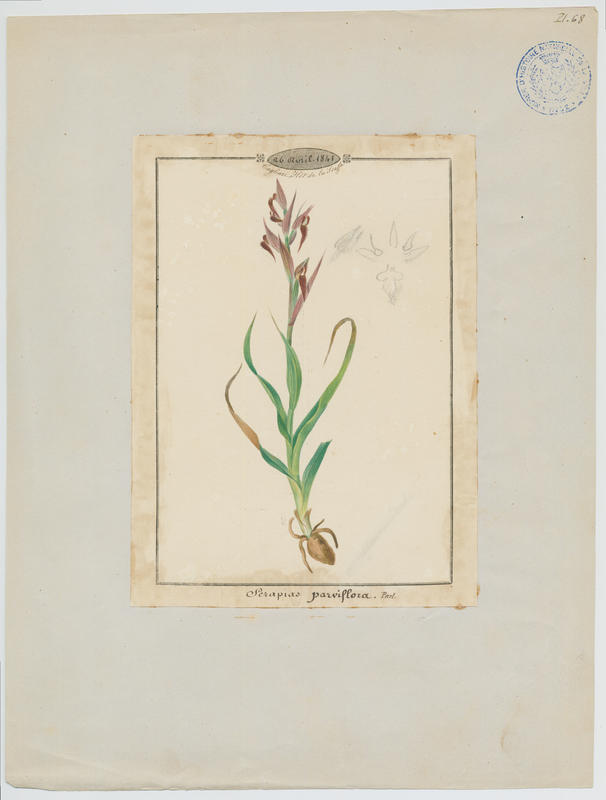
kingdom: Plantae
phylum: Tracheophyta
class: Liliopsida
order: Asparagales
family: Orchidaceae
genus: Serapias
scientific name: Serapias parviflora
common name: Small-flowered tongue-orchid
